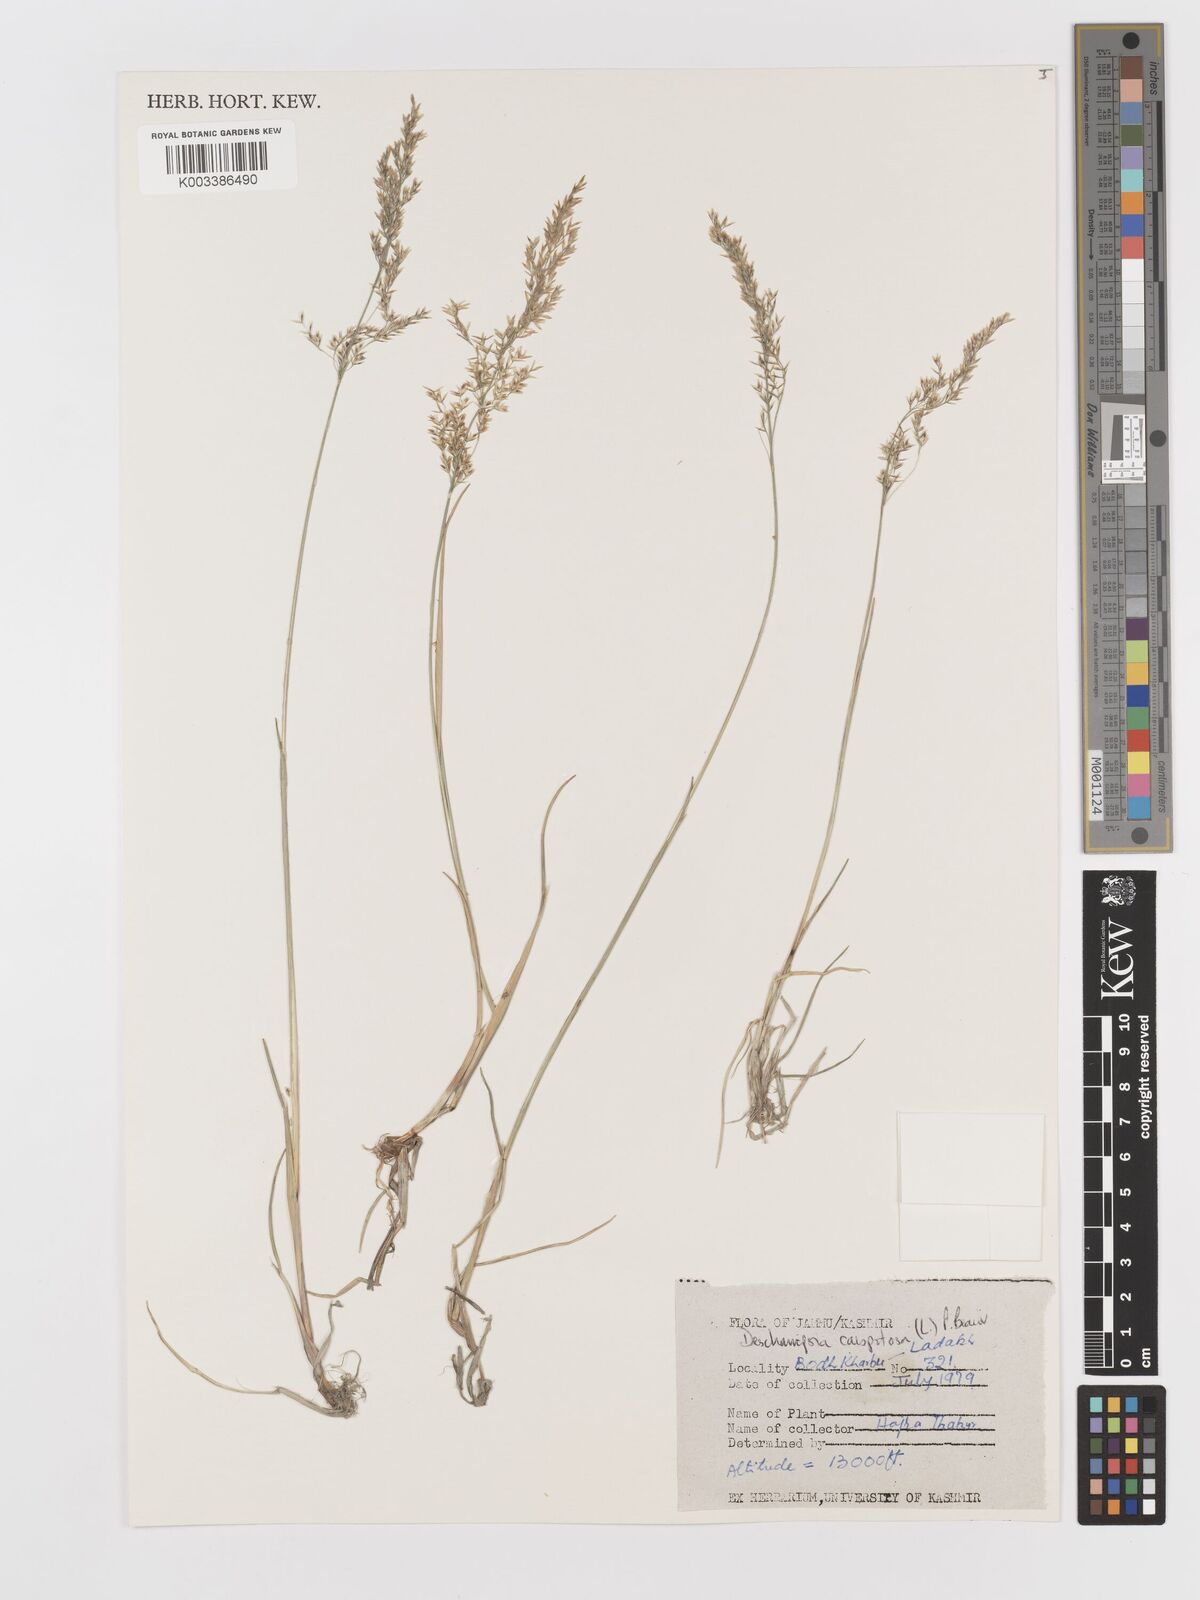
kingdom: Plantae
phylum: Tracheophyta
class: Liliopsida
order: Poales
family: Poaceae
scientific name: Poaceae
